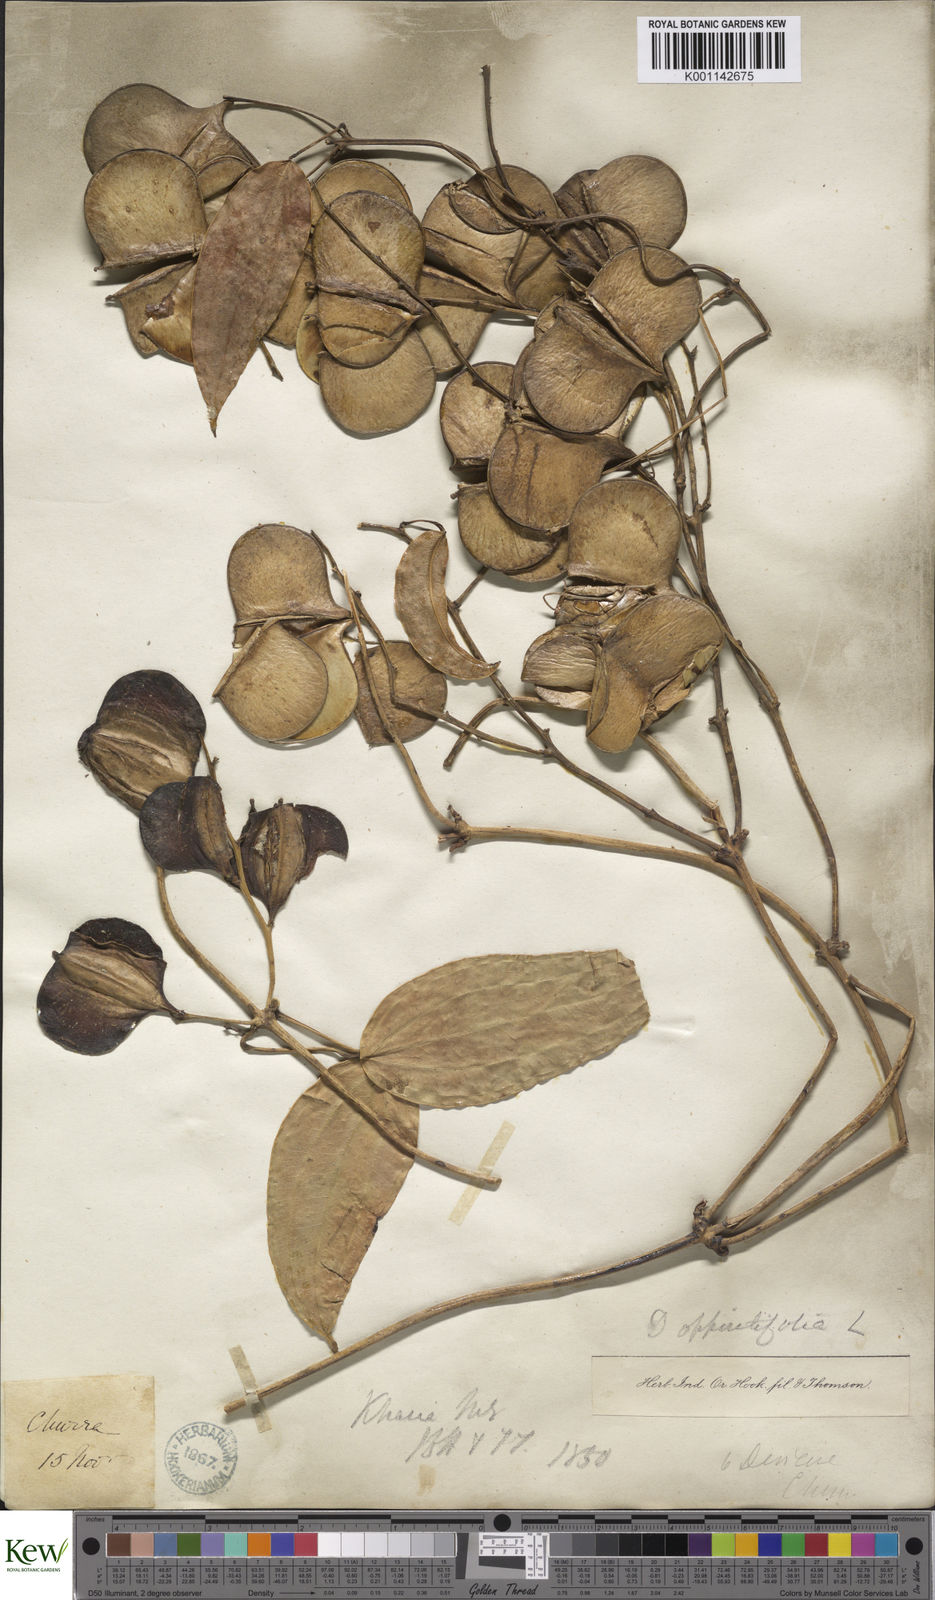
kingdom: Plantae
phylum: Tracheophyta
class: Liliopsida
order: Dioscoreales
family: Dioscoreaceae
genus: Dioscorea
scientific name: Dioscorea wattii
